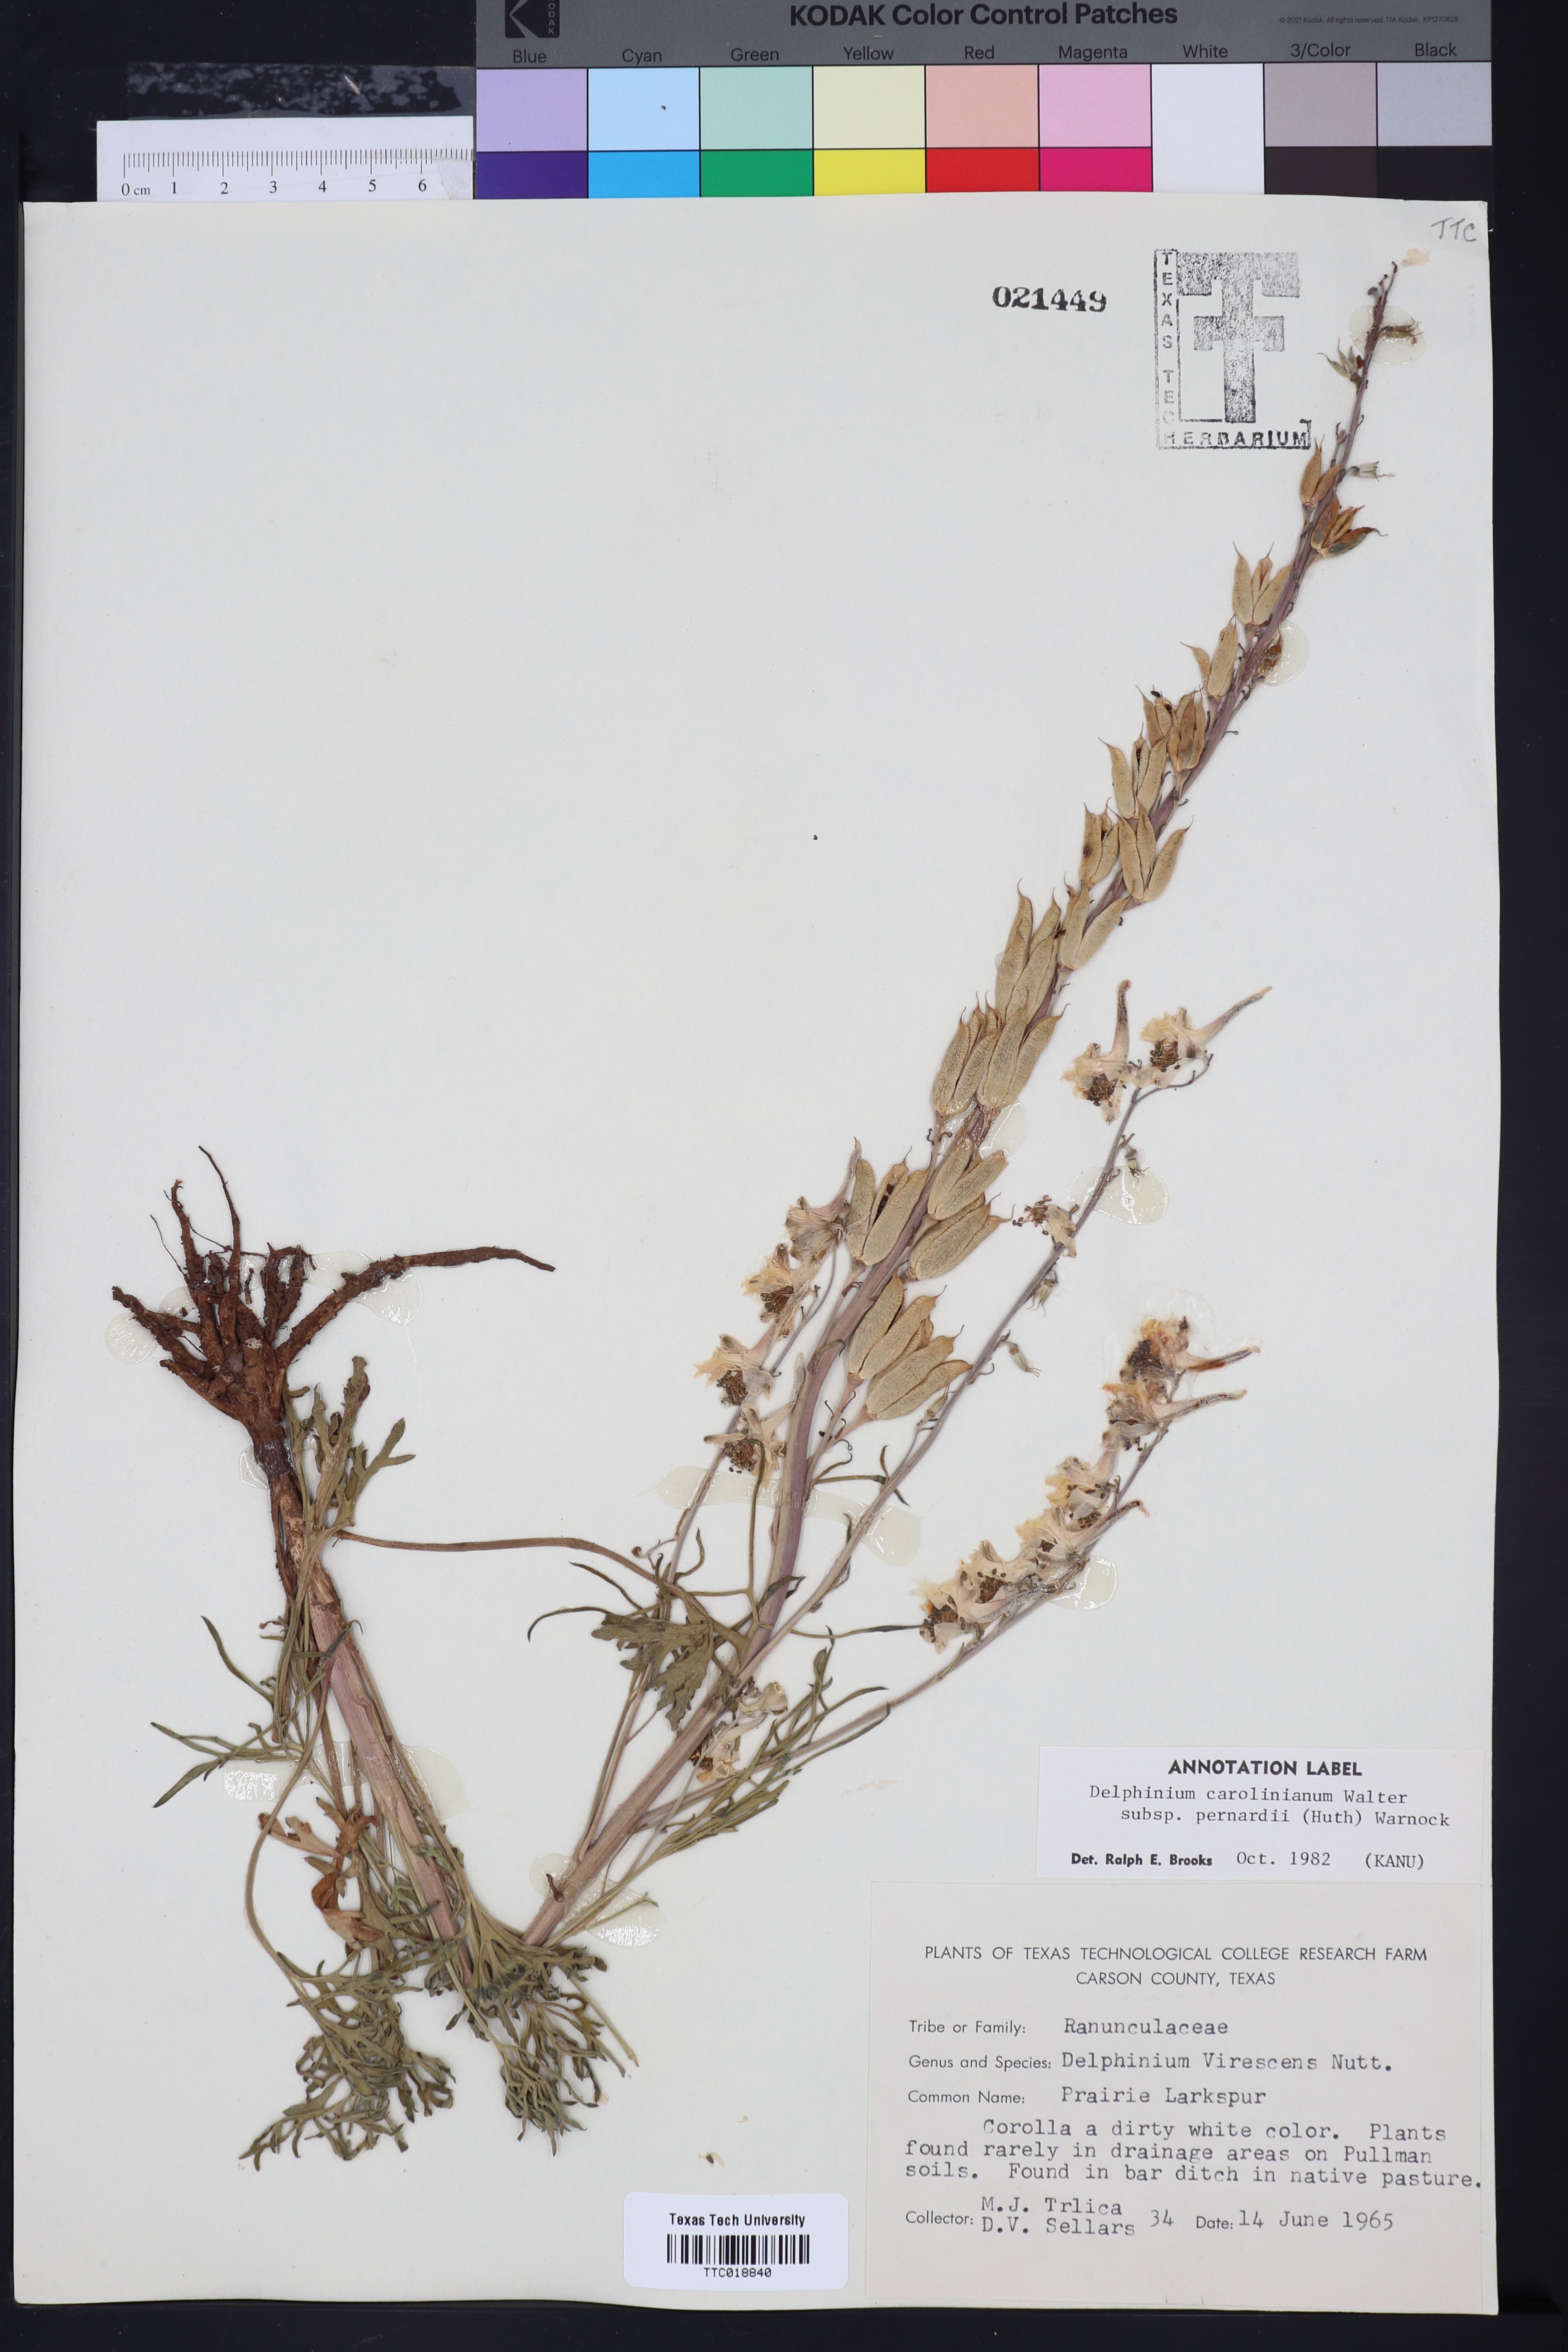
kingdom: Plantae
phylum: Tracheophyta
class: Magnoliopsida
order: Ranunculales
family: Ranunculaceae
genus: Delphinium
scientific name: Delphinium carolinianum
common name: Carolina larkspur
